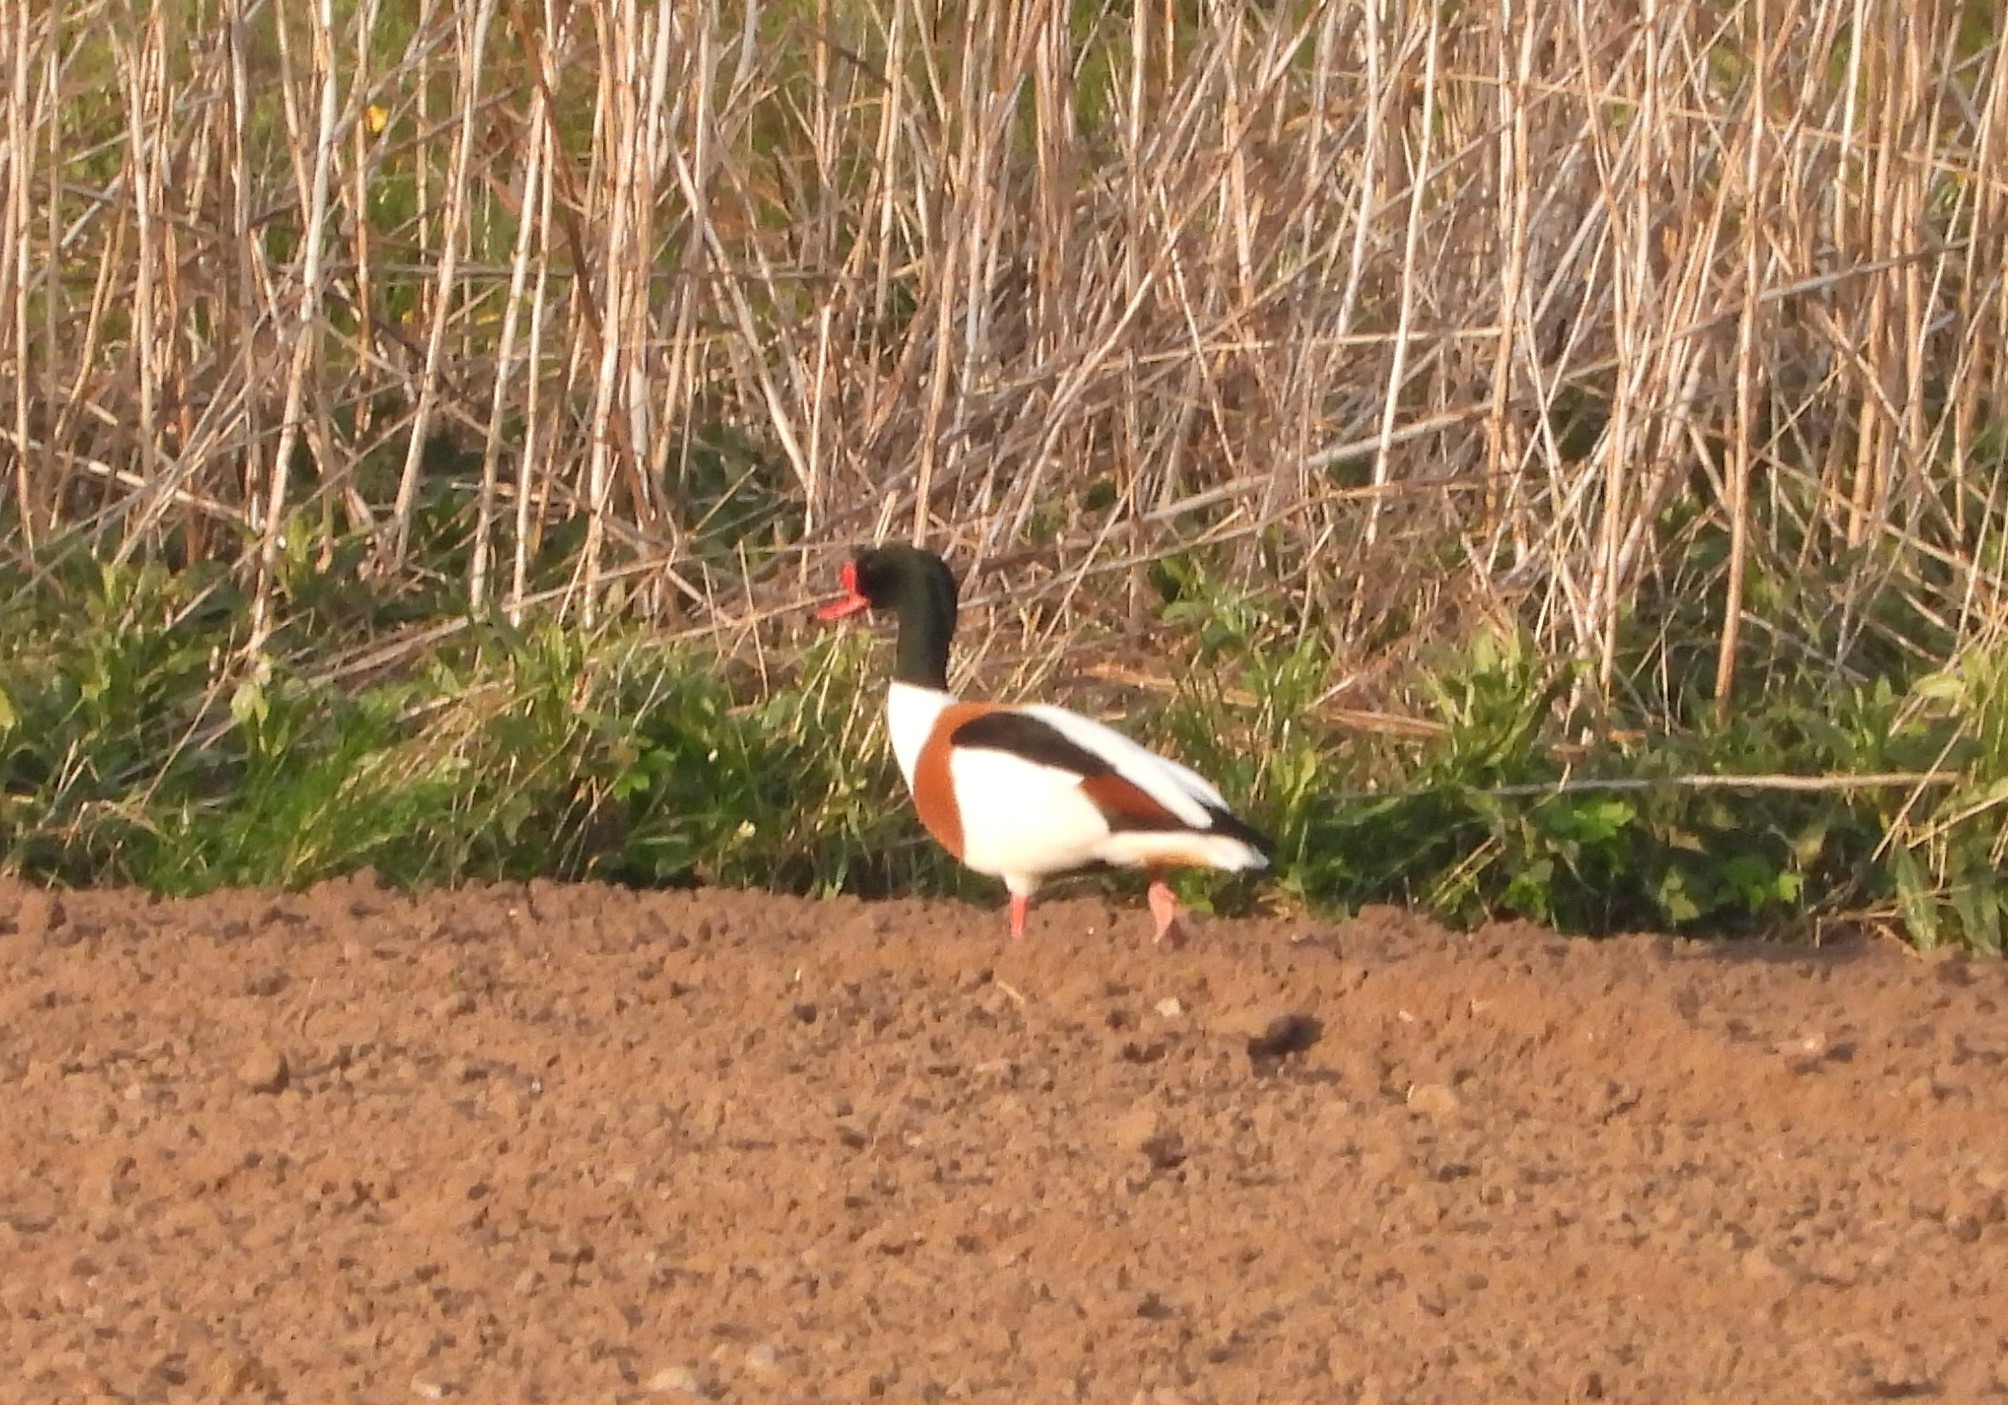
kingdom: Animalia
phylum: Chordata
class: Aves
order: Anseriformes
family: Anatidae
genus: Tadorna
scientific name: Tadorna tadorna
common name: Gravand
